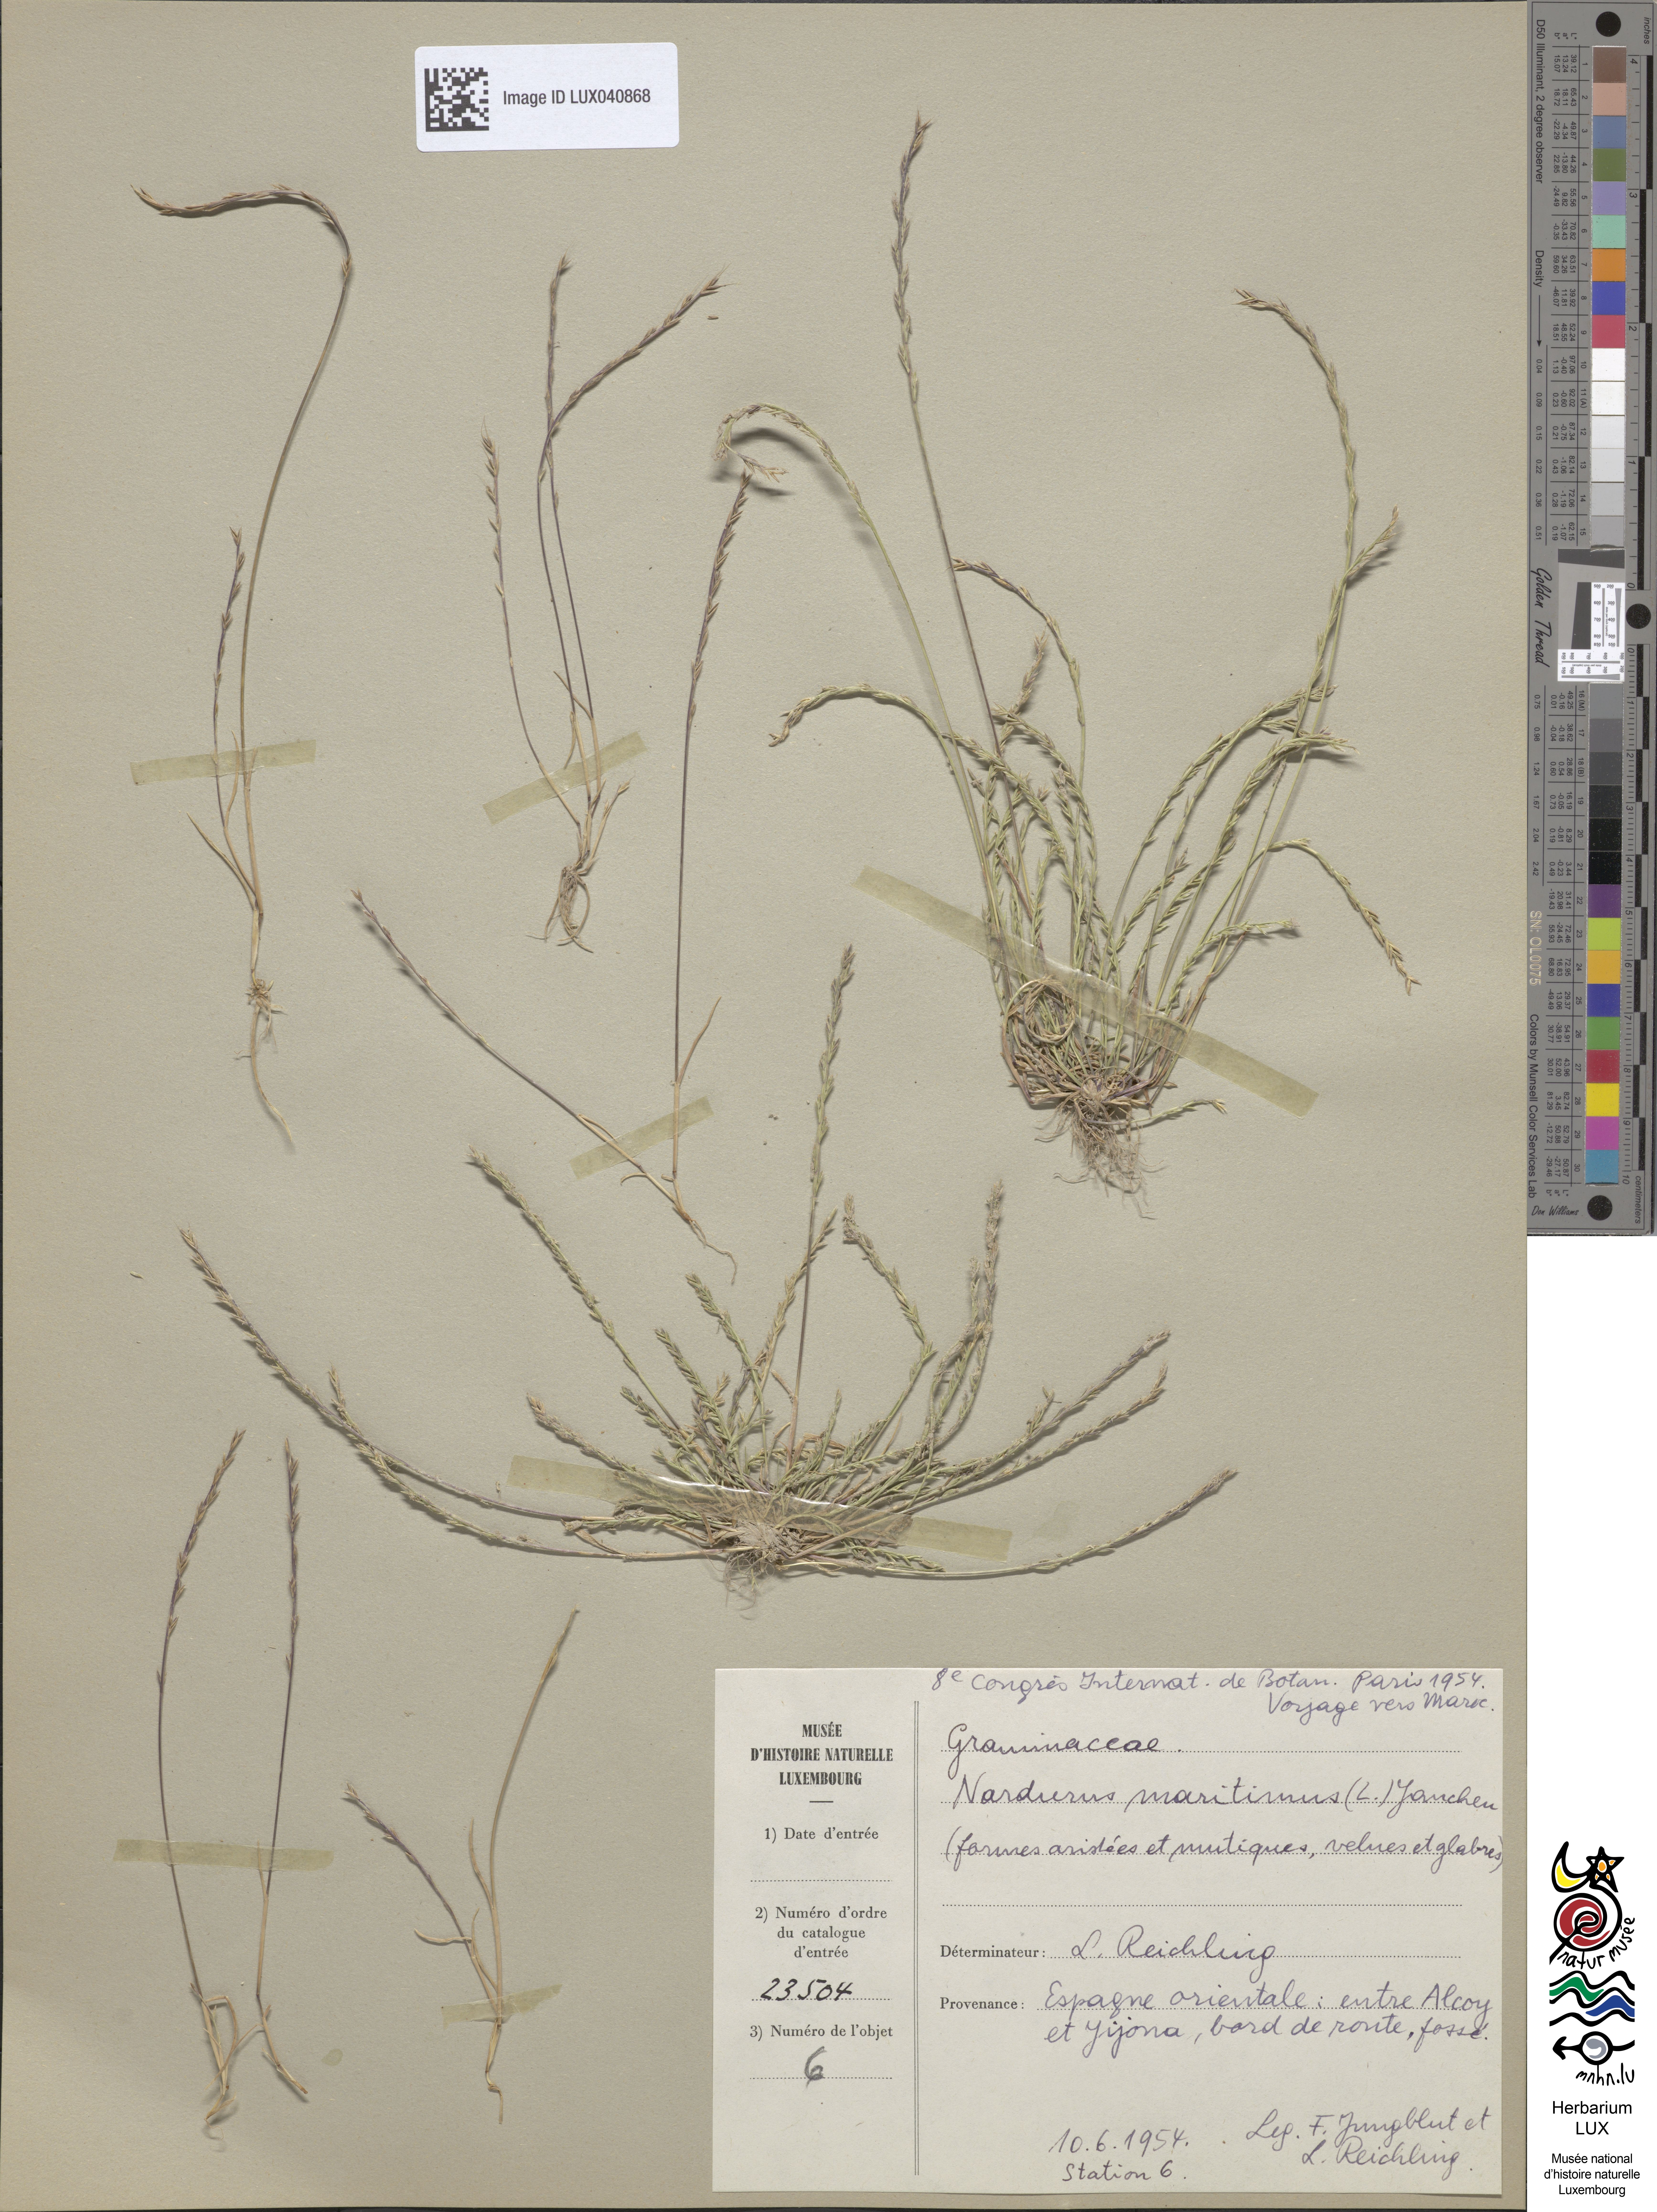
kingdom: Plantae
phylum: Tracheophyta
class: Liliopsida
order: Poales
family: Poaceae
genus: Festuca
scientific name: Festuca maritima
